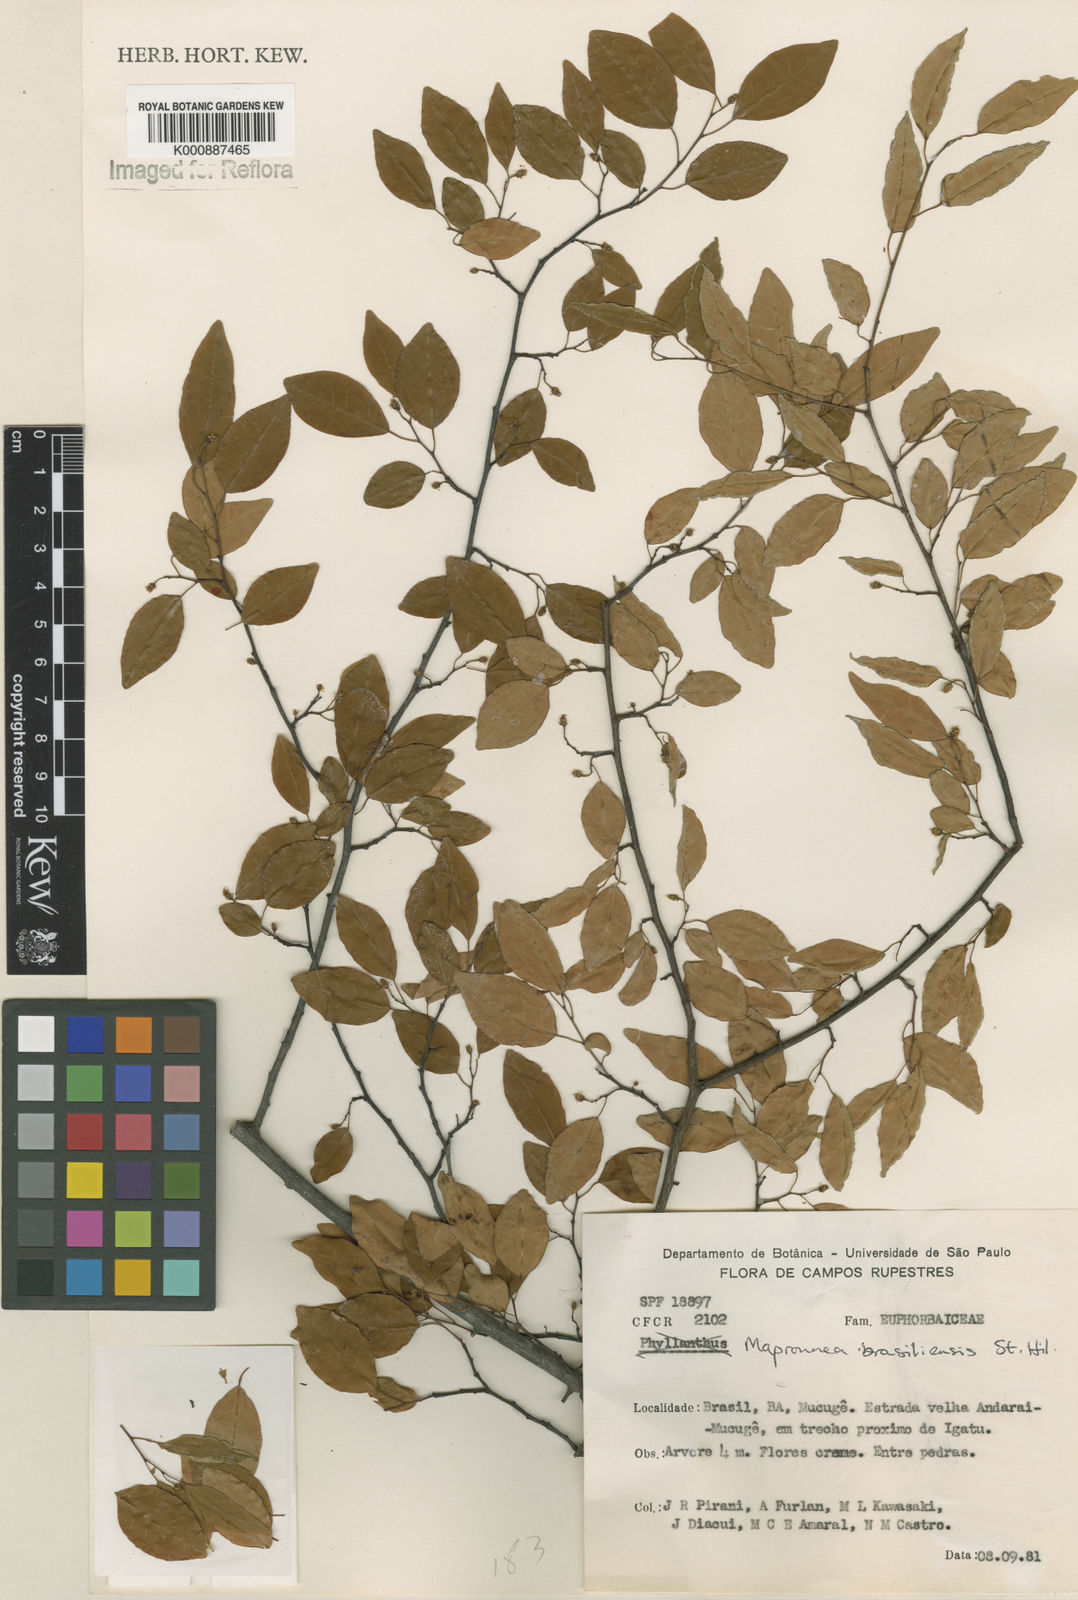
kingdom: Plantae
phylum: Tracheophyta
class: Magnoliopsida
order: Malpighiales
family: Euphorbiaceae
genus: Maprounea
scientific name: Maprounea brasiliensis
